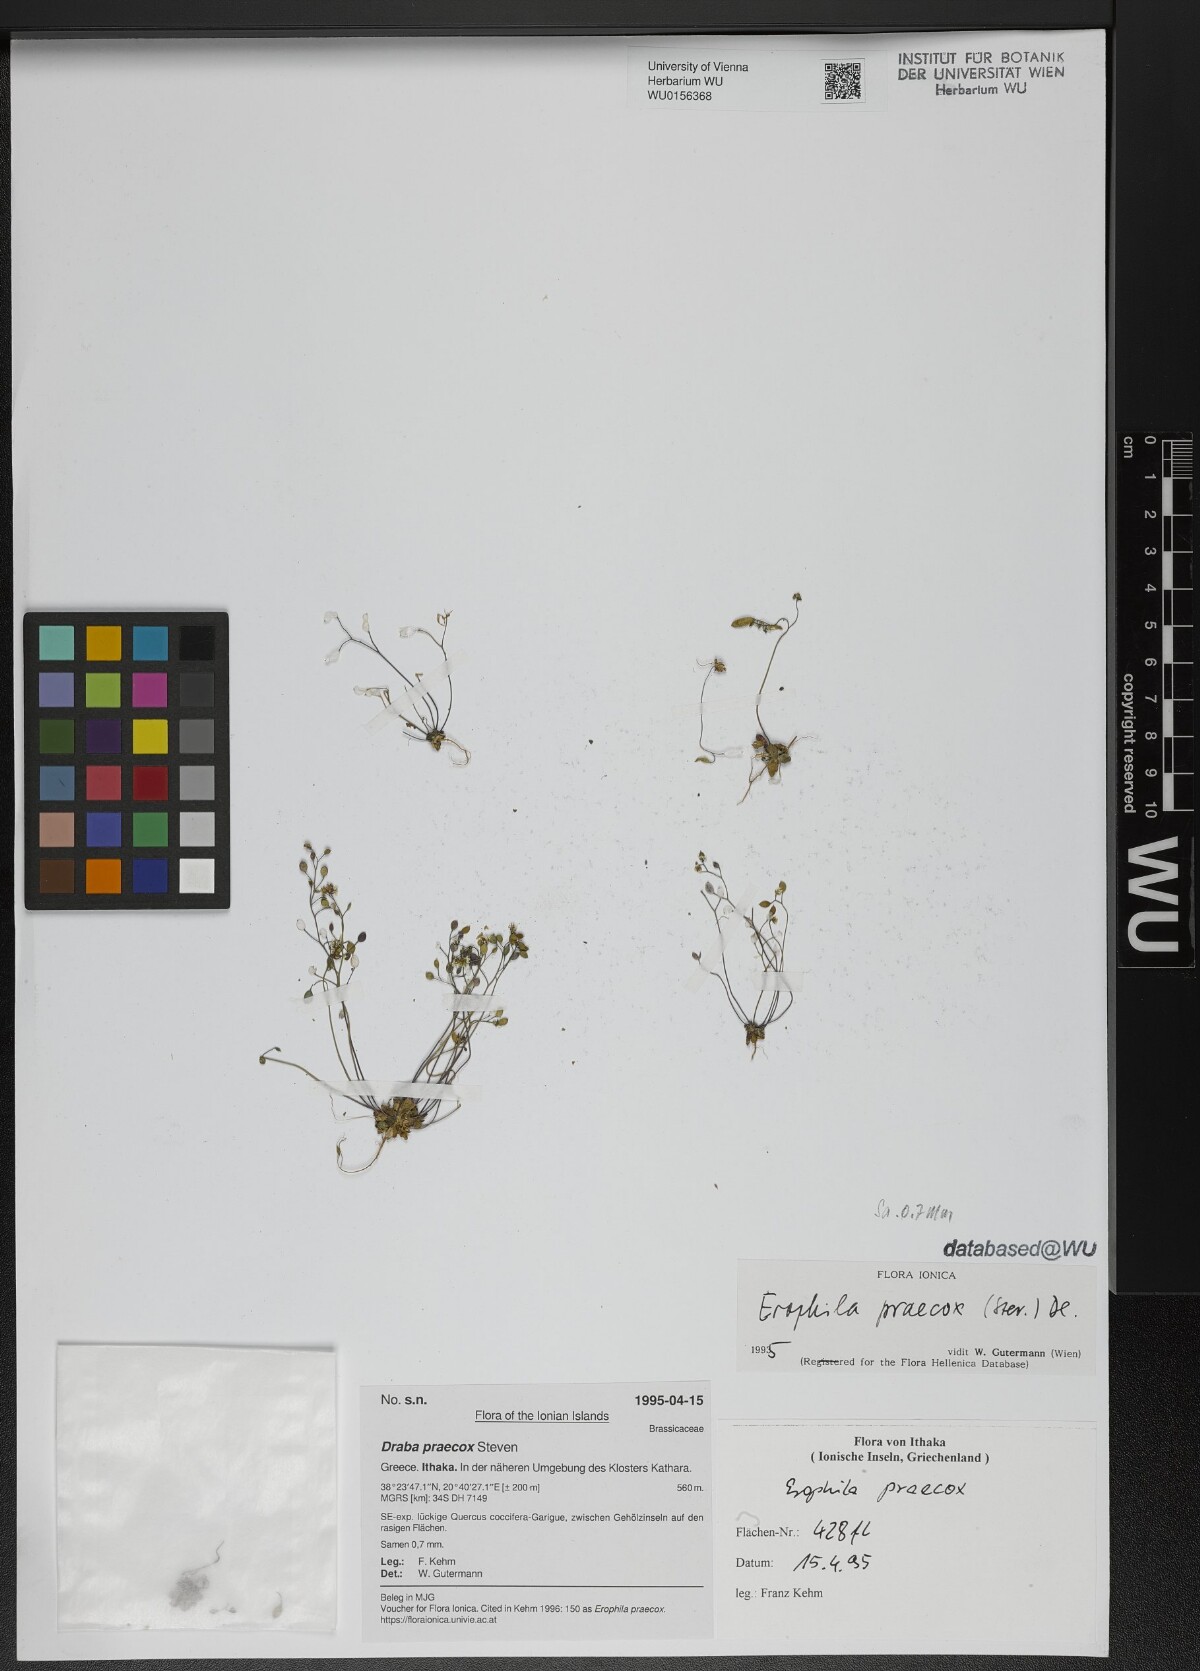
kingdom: Plantae
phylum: Tracheophyta
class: Magnoliopsida
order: Brassicales
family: Brassicaceae
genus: Draba
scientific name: Draba verna
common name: Spring draba
